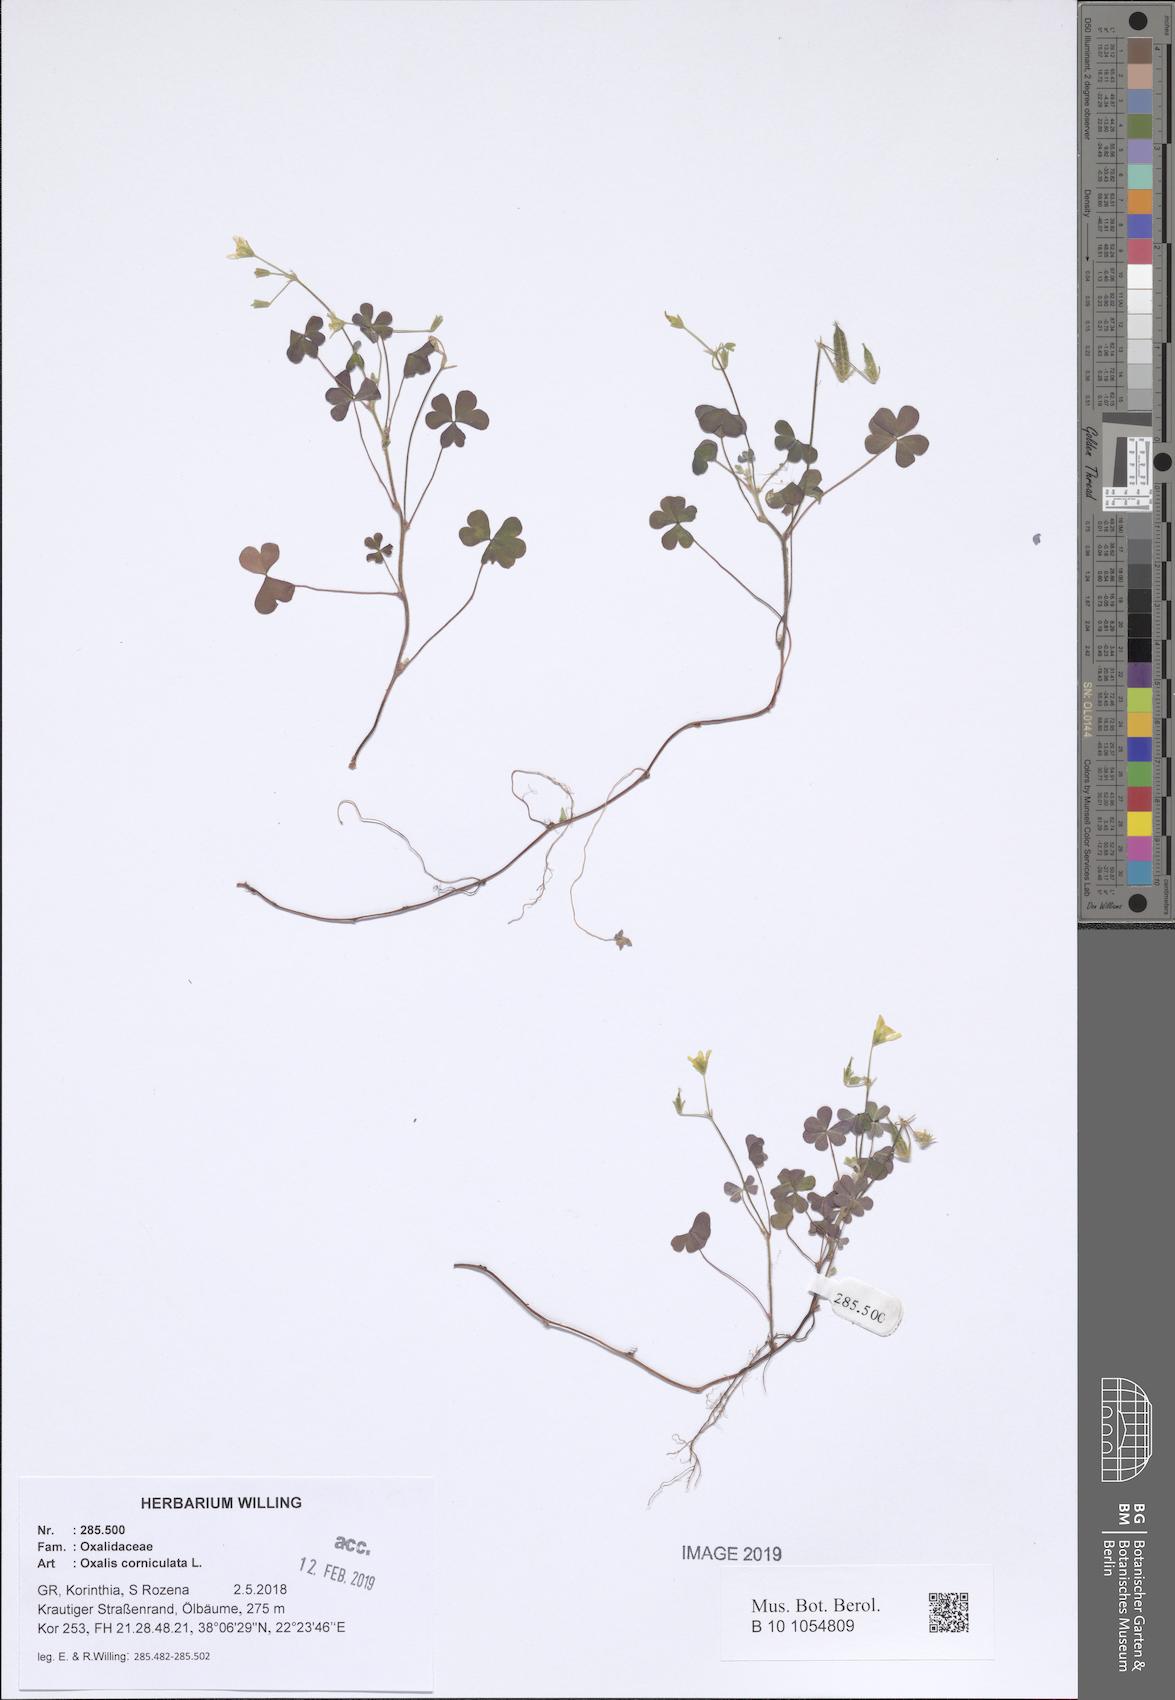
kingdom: Plantae
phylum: Tracheophyta
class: Magnoliopsida
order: Oxalidales
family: Oxalidaceae
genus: Oxalis
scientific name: Oxalis corniculata
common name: Procumbent yellow-sorrel
